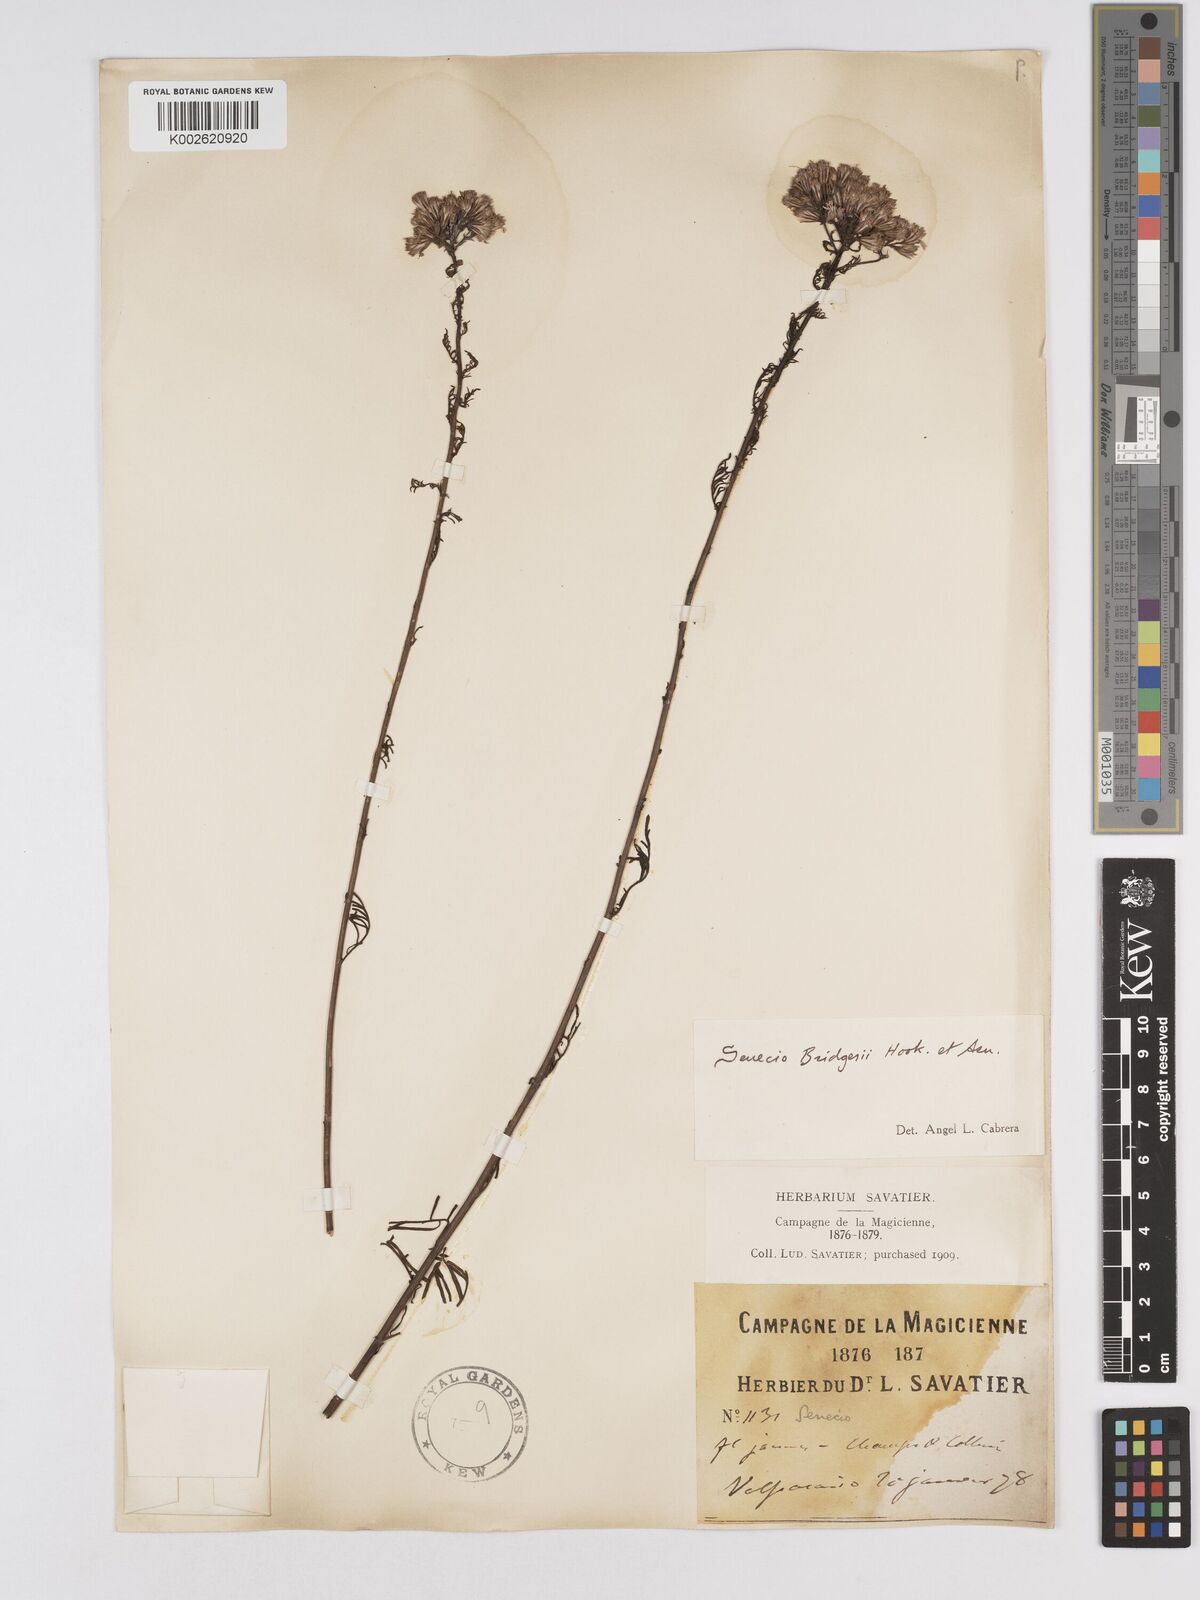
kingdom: Plantae
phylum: Tracheophyta
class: Magnoliopsida
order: Asterales
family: Asteraceae
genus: Senecio
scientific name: Senecio bridgesii
